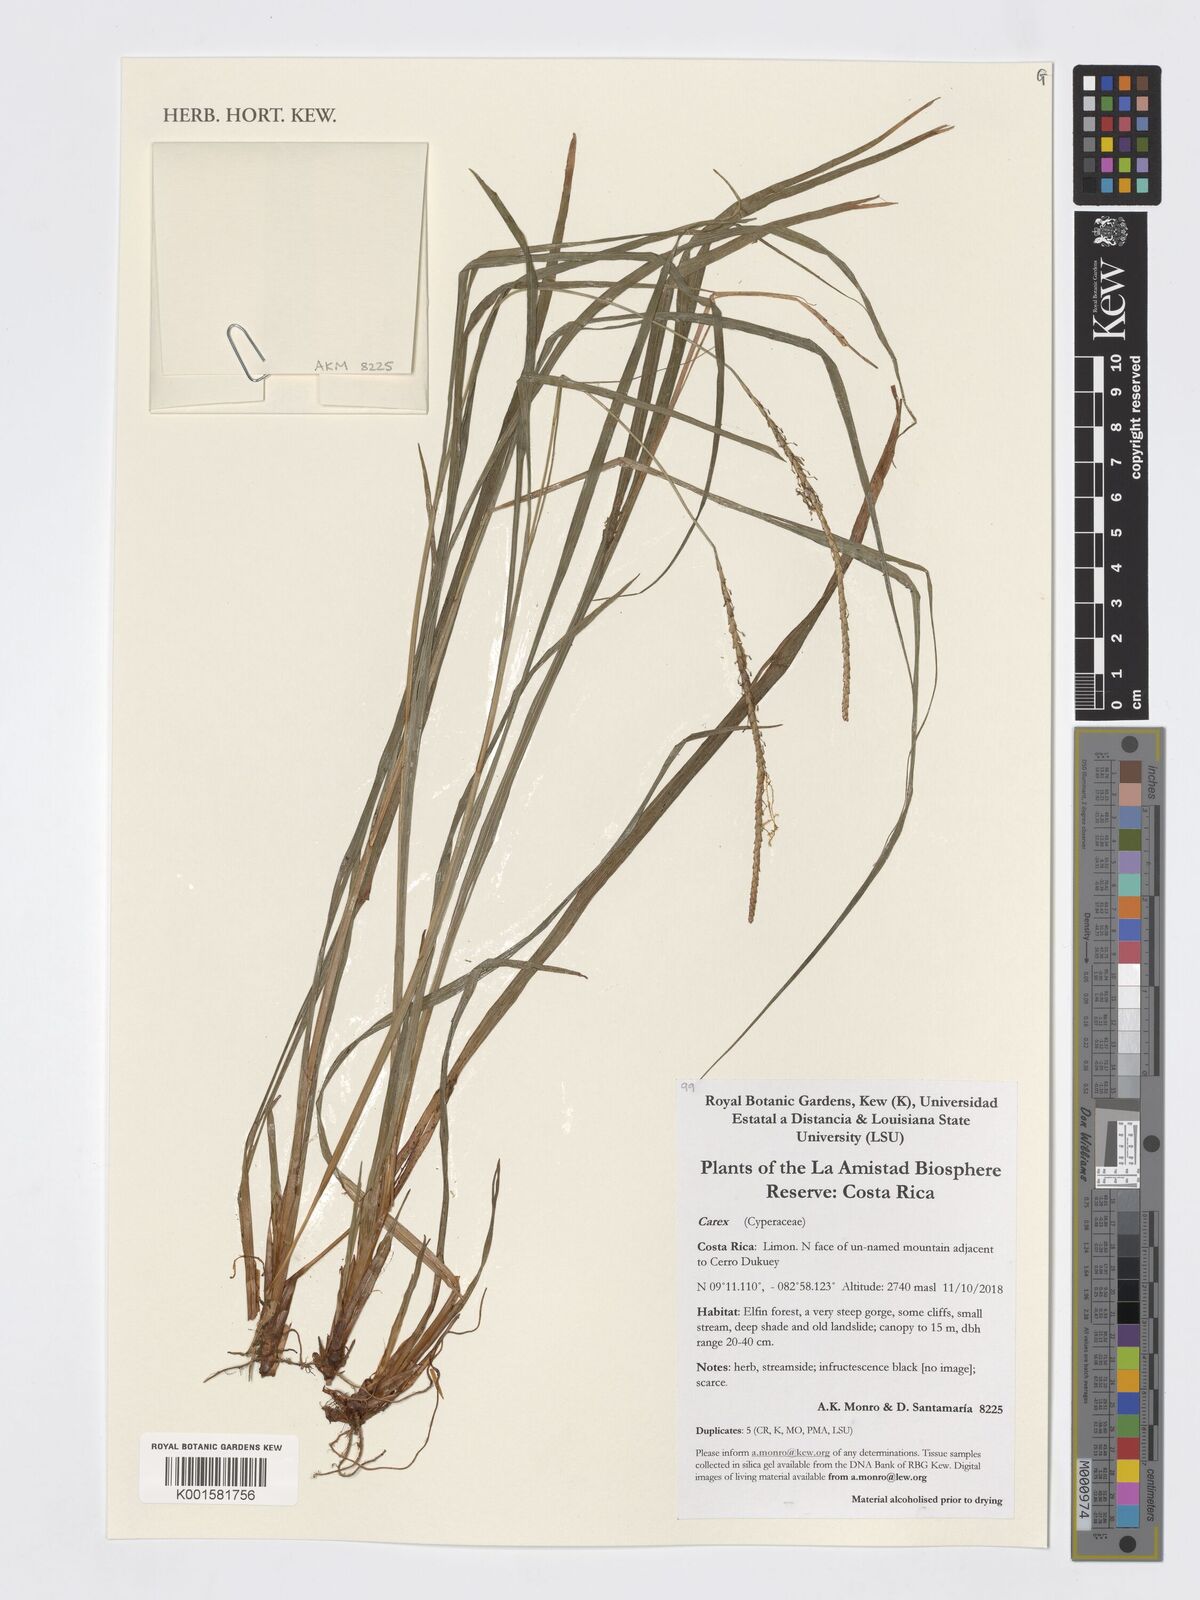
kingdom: Plantae
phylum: Tracheophyta
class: Liliopsida
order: Poales
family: Cyperaceae
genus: Carex
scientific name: Carex
